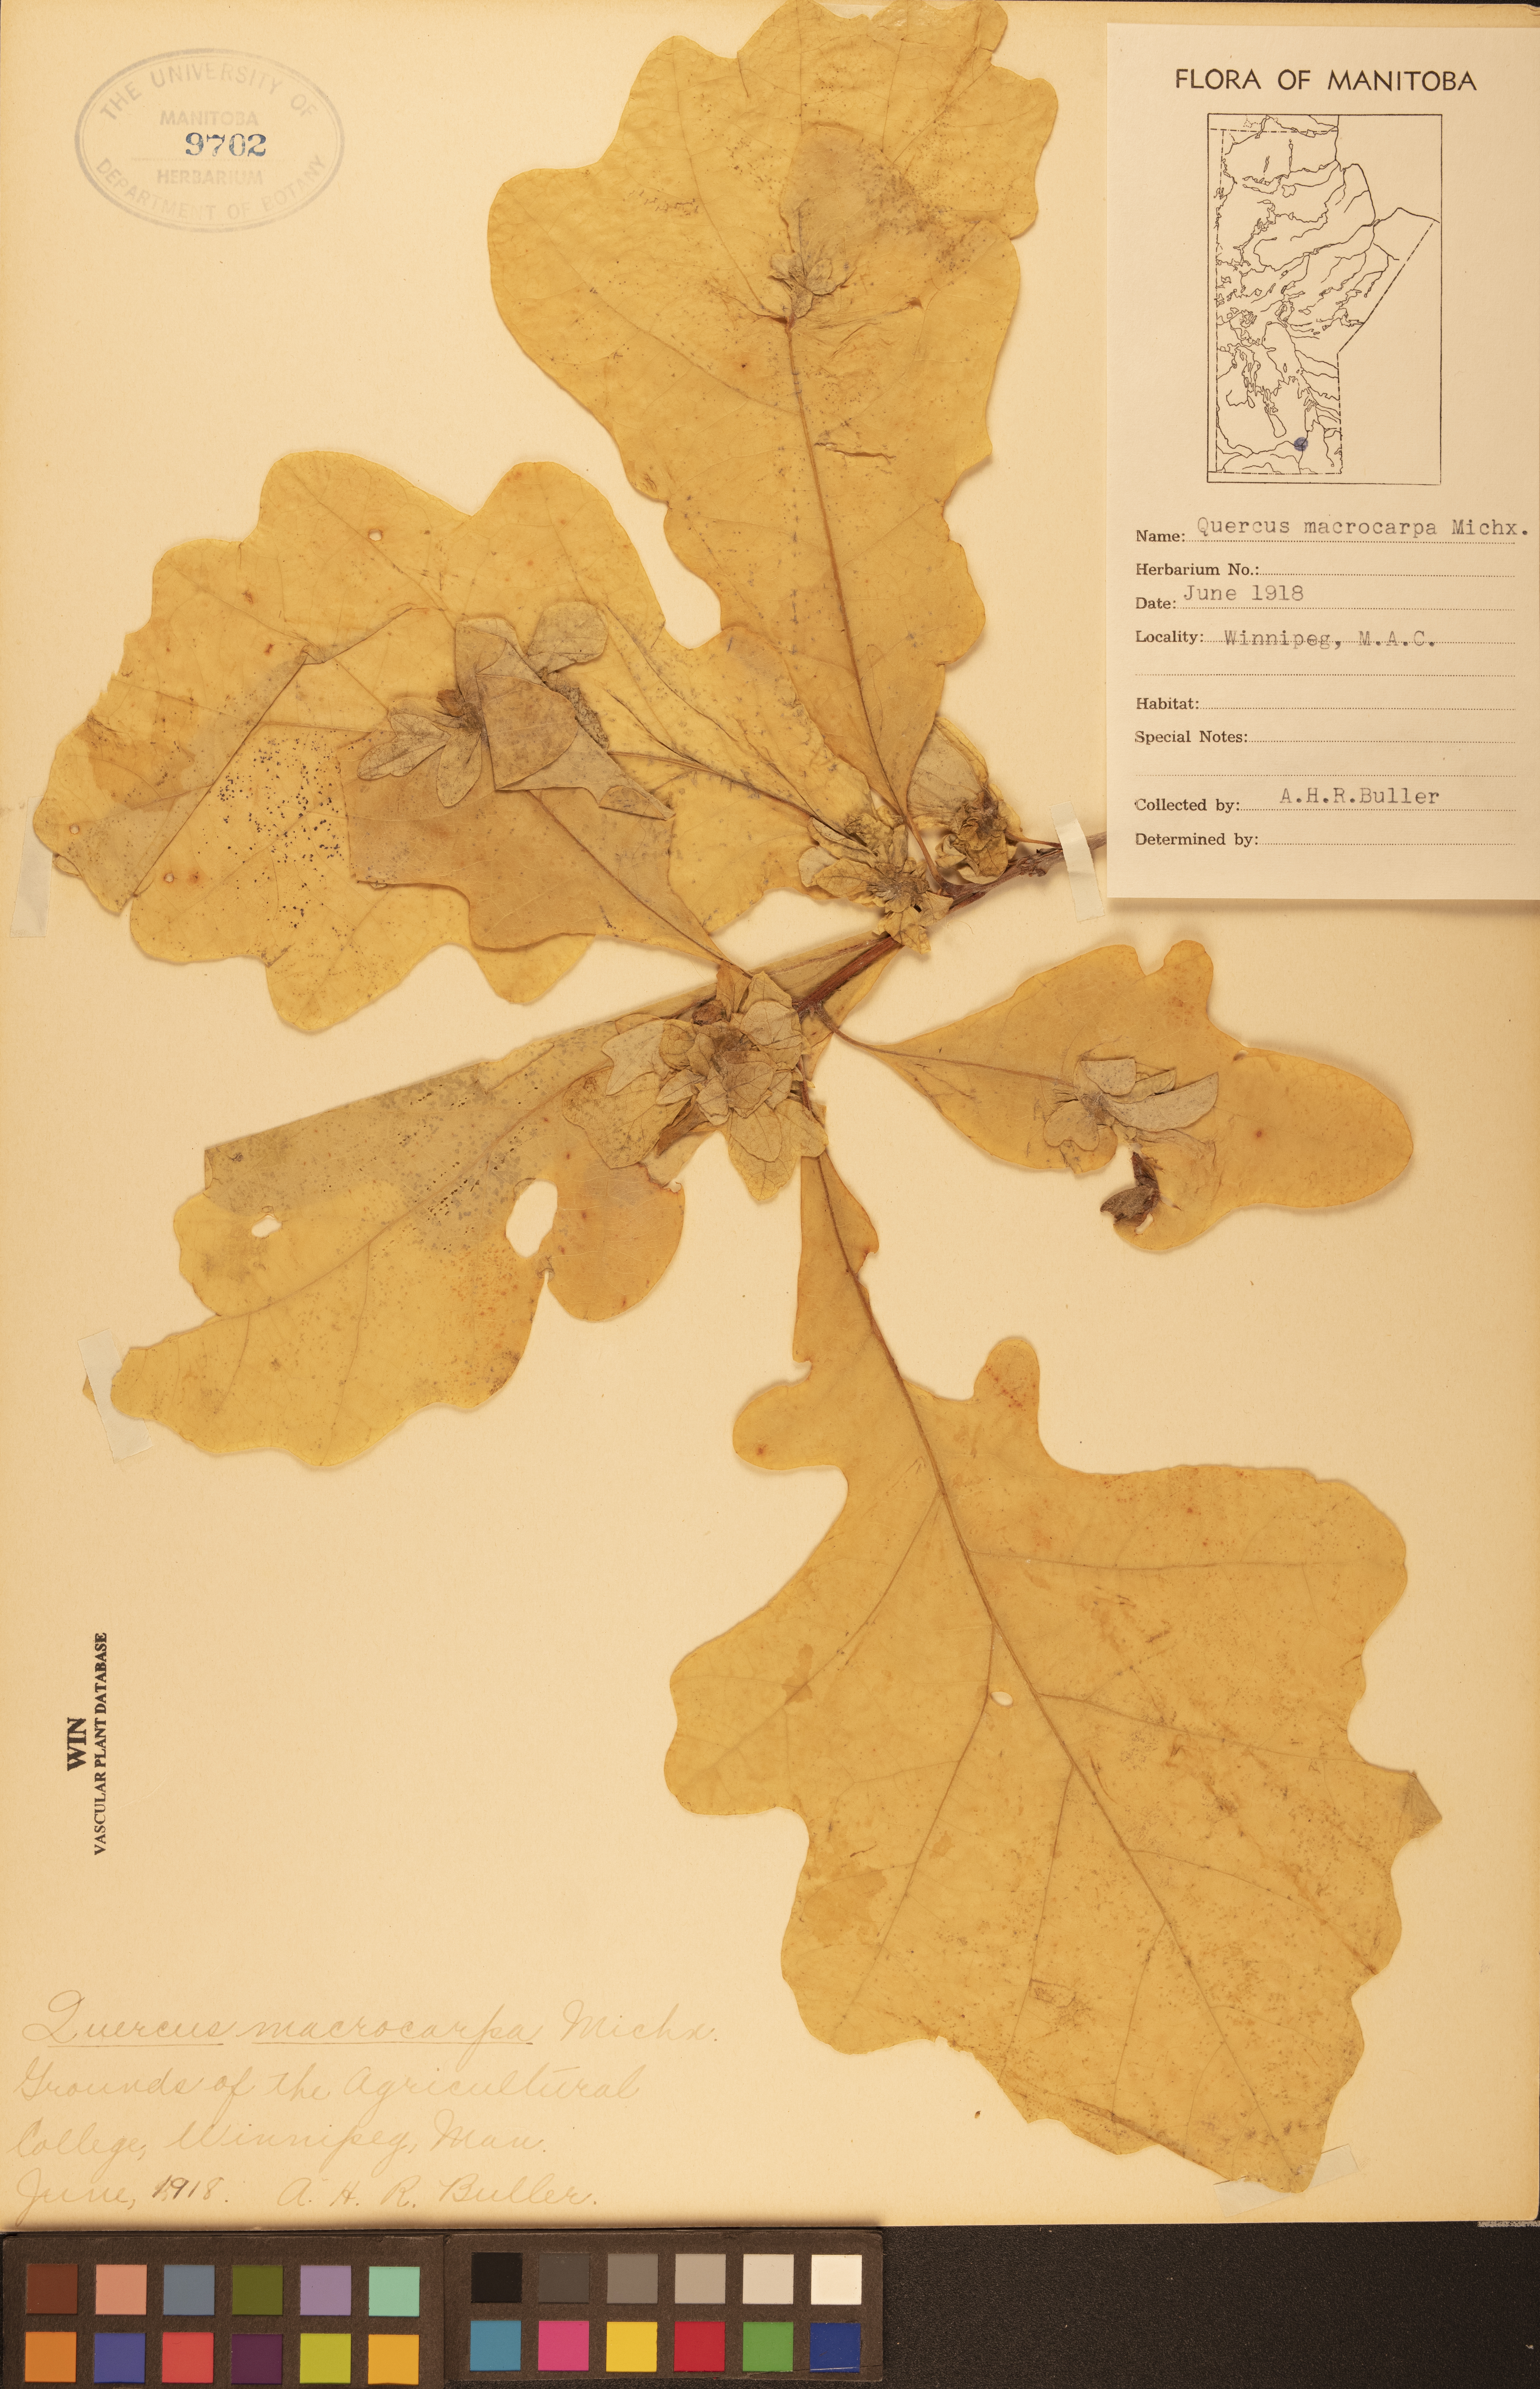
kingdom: Plantae
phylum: Tracheophyta
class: Magnoliopsida
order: Fagales
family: Fagaceae
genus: Quercus
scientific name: Quercus macrocarpa
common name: Bur oak
